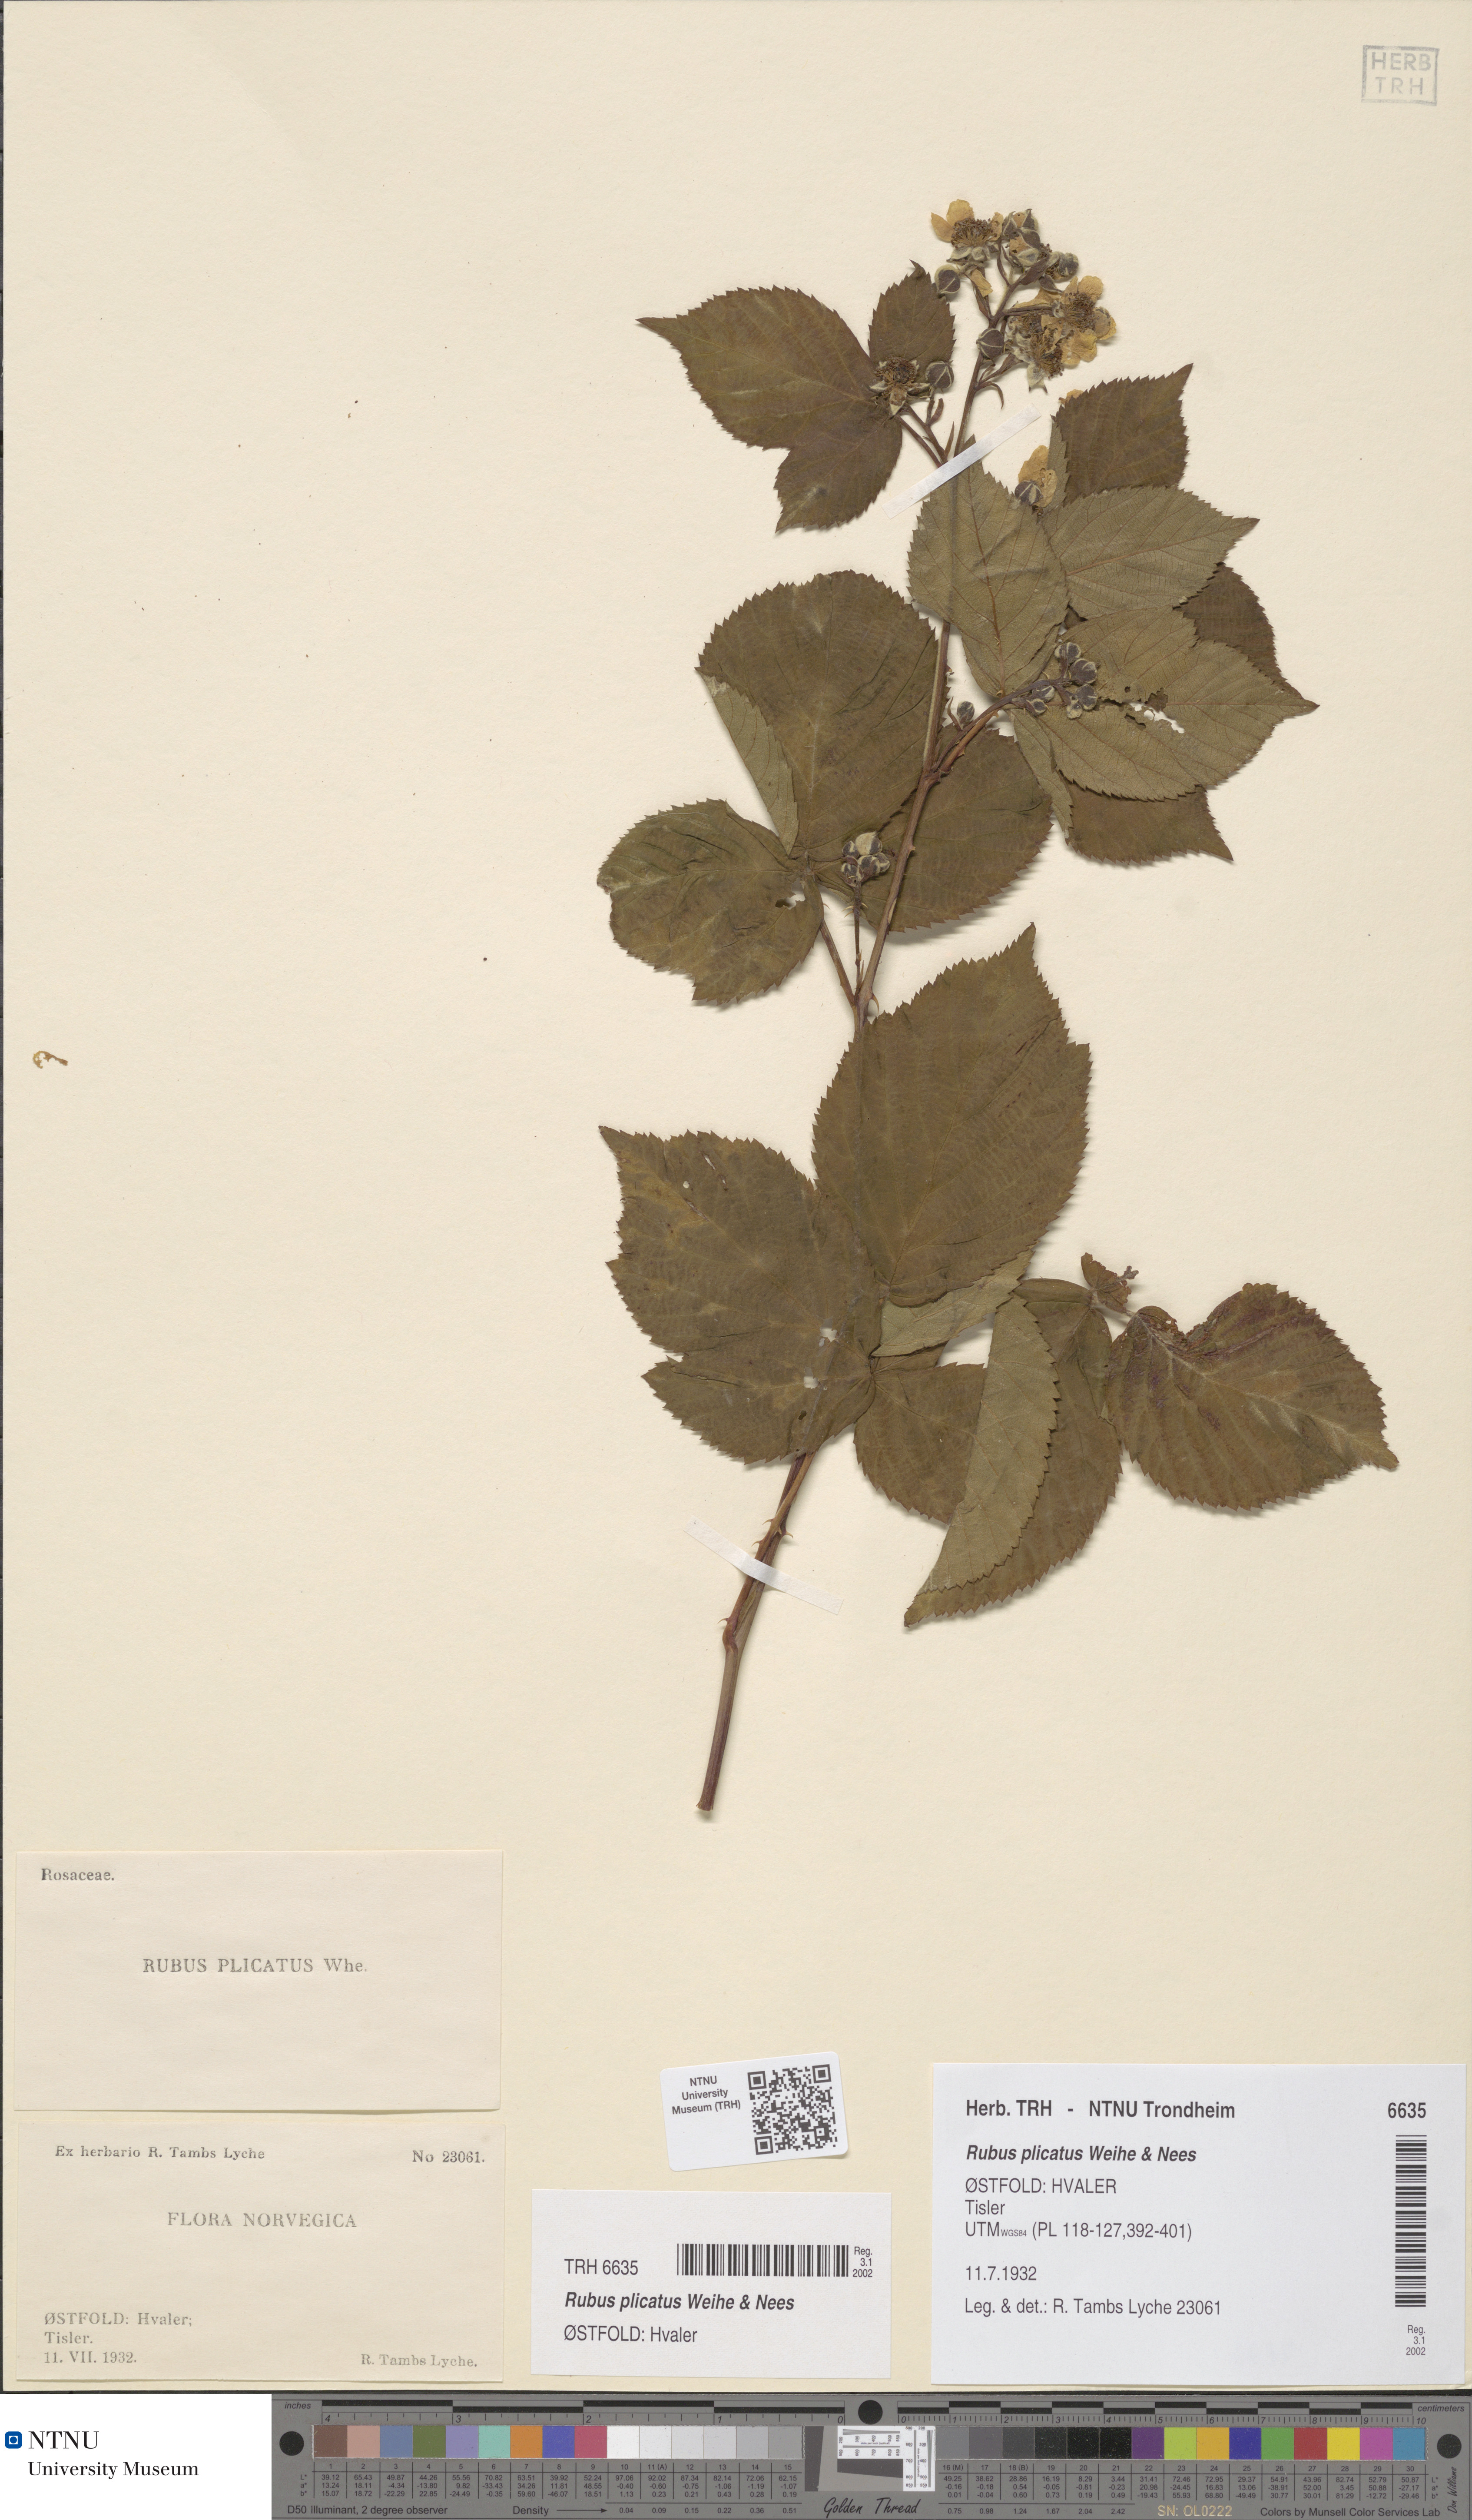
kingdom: Plantae
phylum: Tracheophyta
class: Magnoliopsida
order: Rosales
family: Rosaceae
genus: Rubus
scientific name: Rubus fruticosus
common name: Blackberry, bramble
